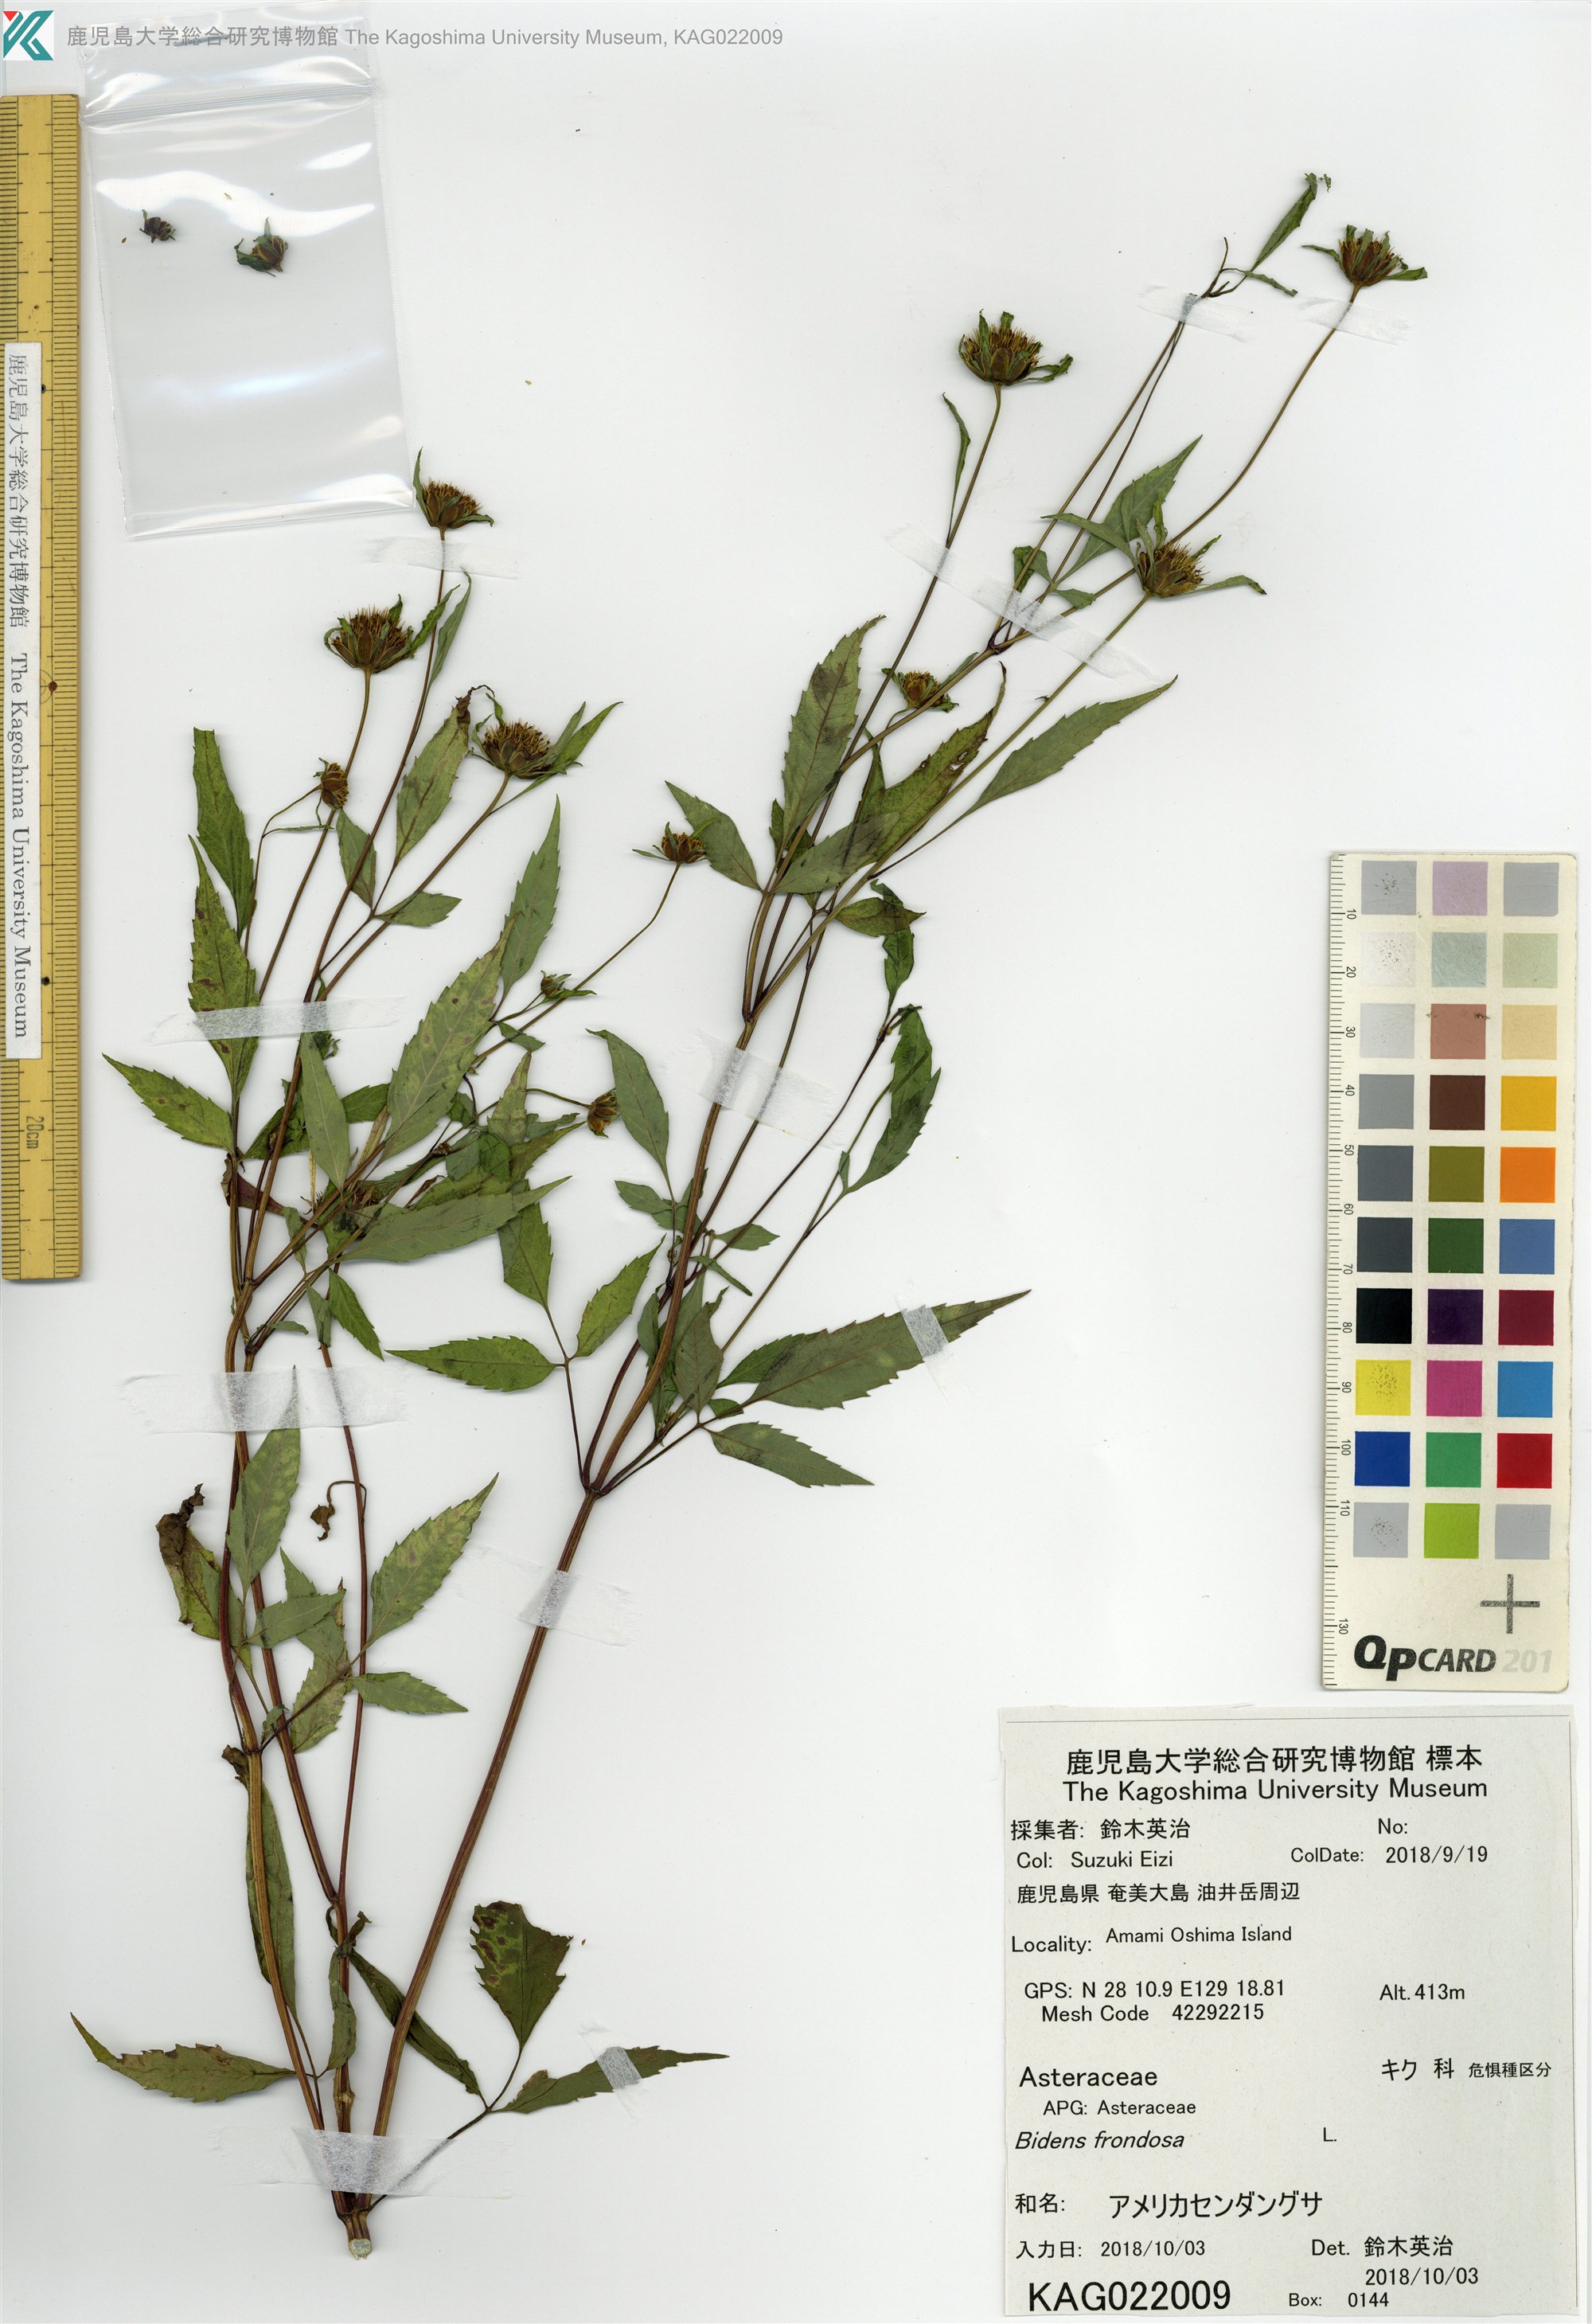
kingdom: Plantae
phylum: Tracheophyta
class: Magnoliopsida
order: Asterales
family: Asteraceae
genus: Bidens
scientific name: Bidens frondosa
